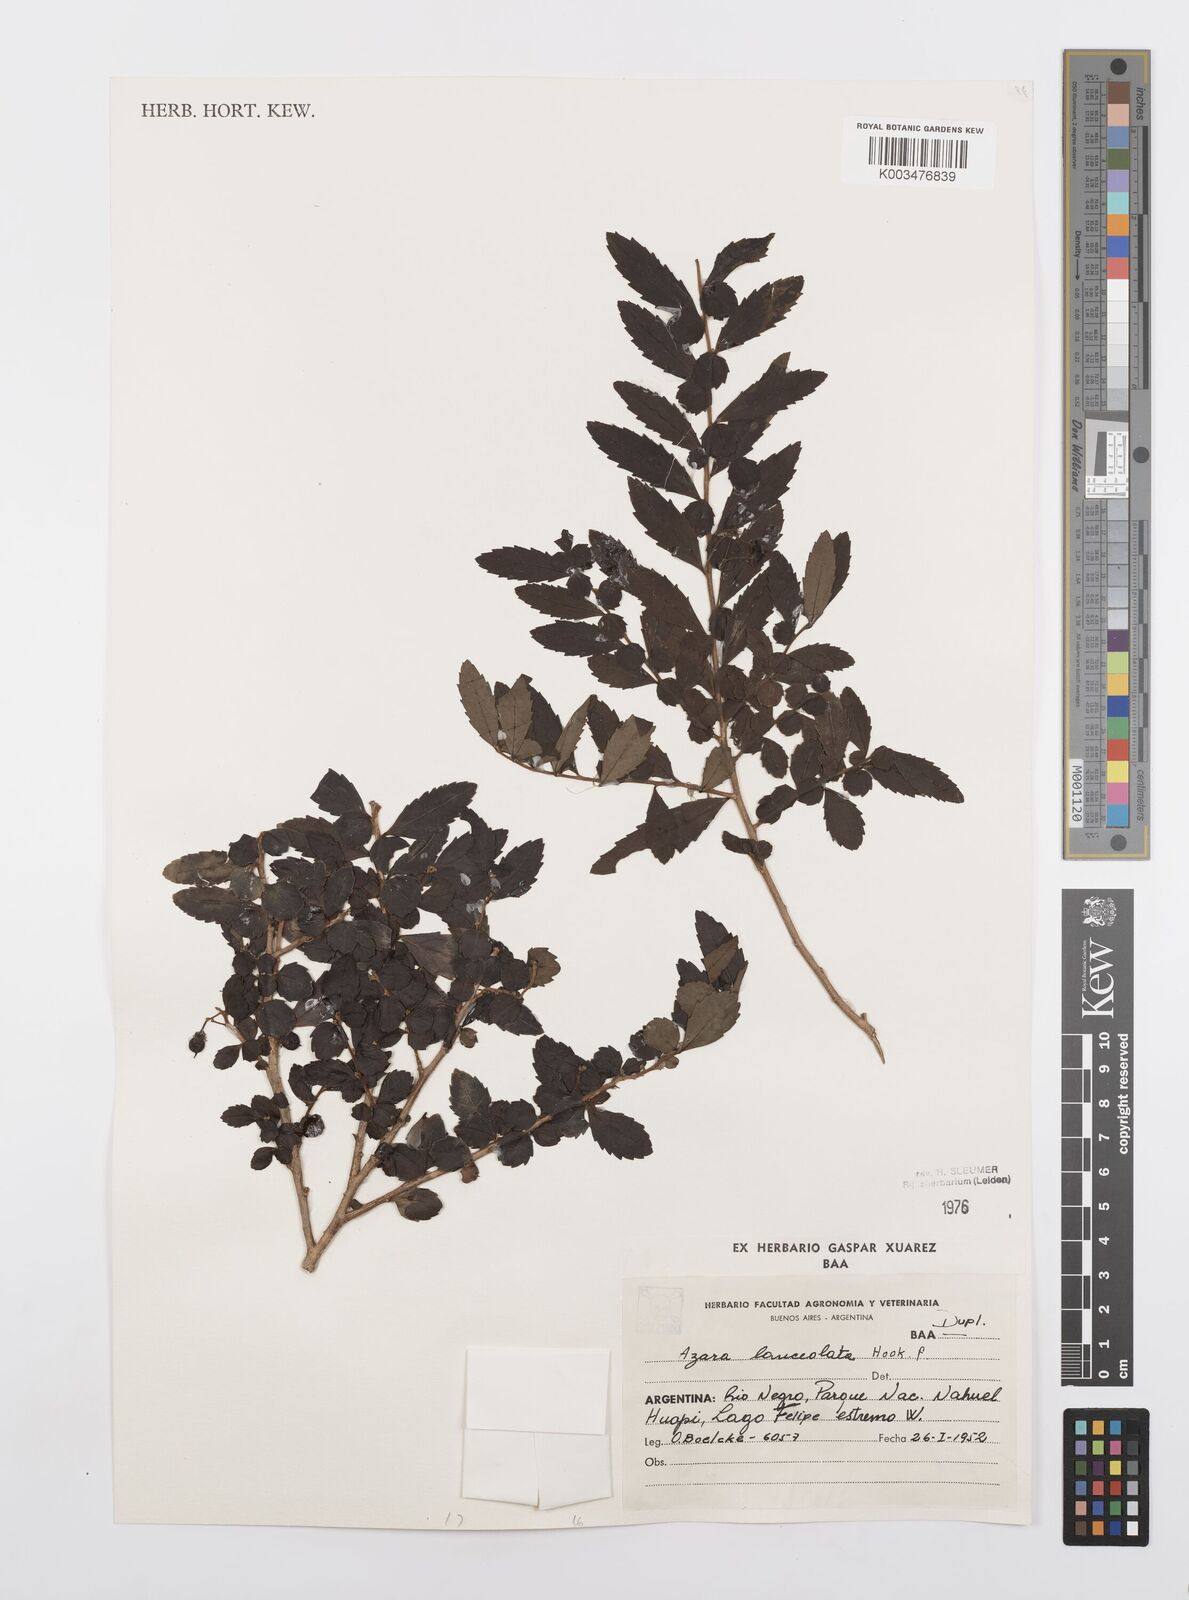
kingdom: Plantae
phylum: Tracheophyta
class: Magnoliopsida
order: Malpighiales
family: Salicaceae
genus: Azara
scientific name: Azara lanceolata
